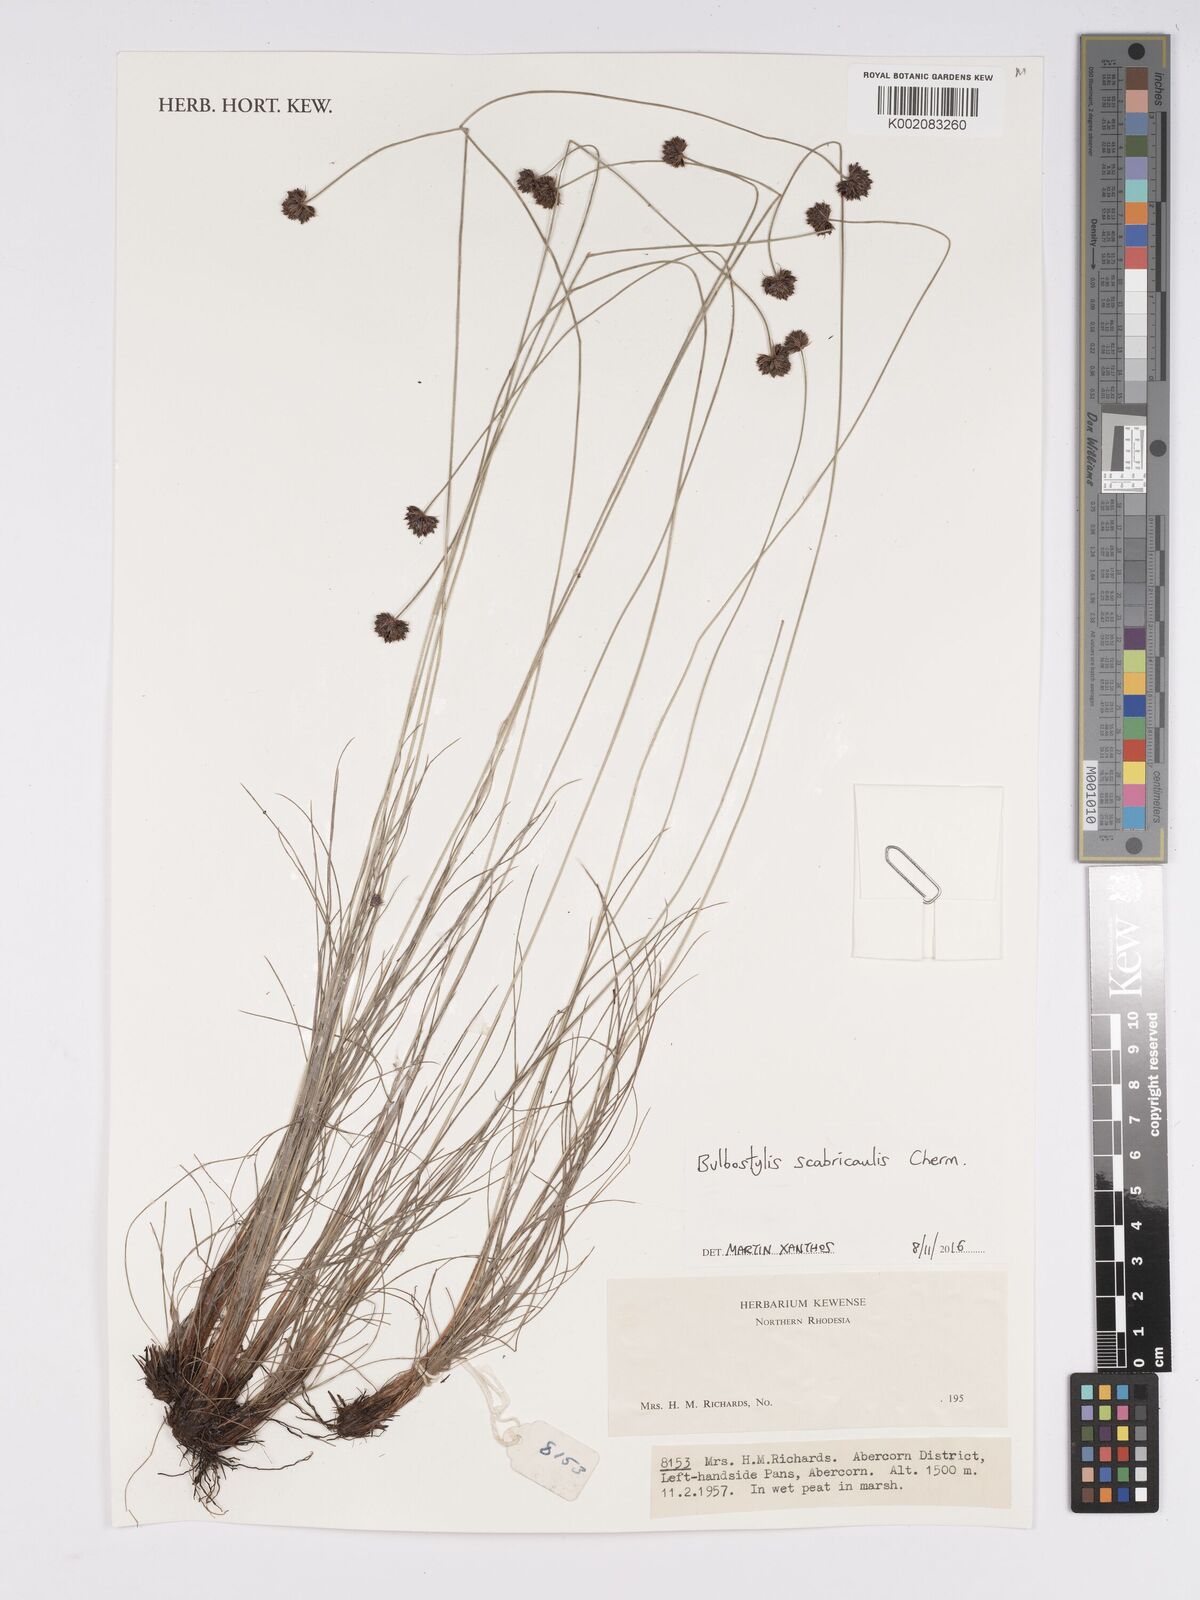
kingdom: Plantae
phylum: Tracheophyta
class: Liliopsida
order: Poales
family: Cyperaceae
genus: Bulbostylis
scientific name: Bulbostylis scabricaulis
